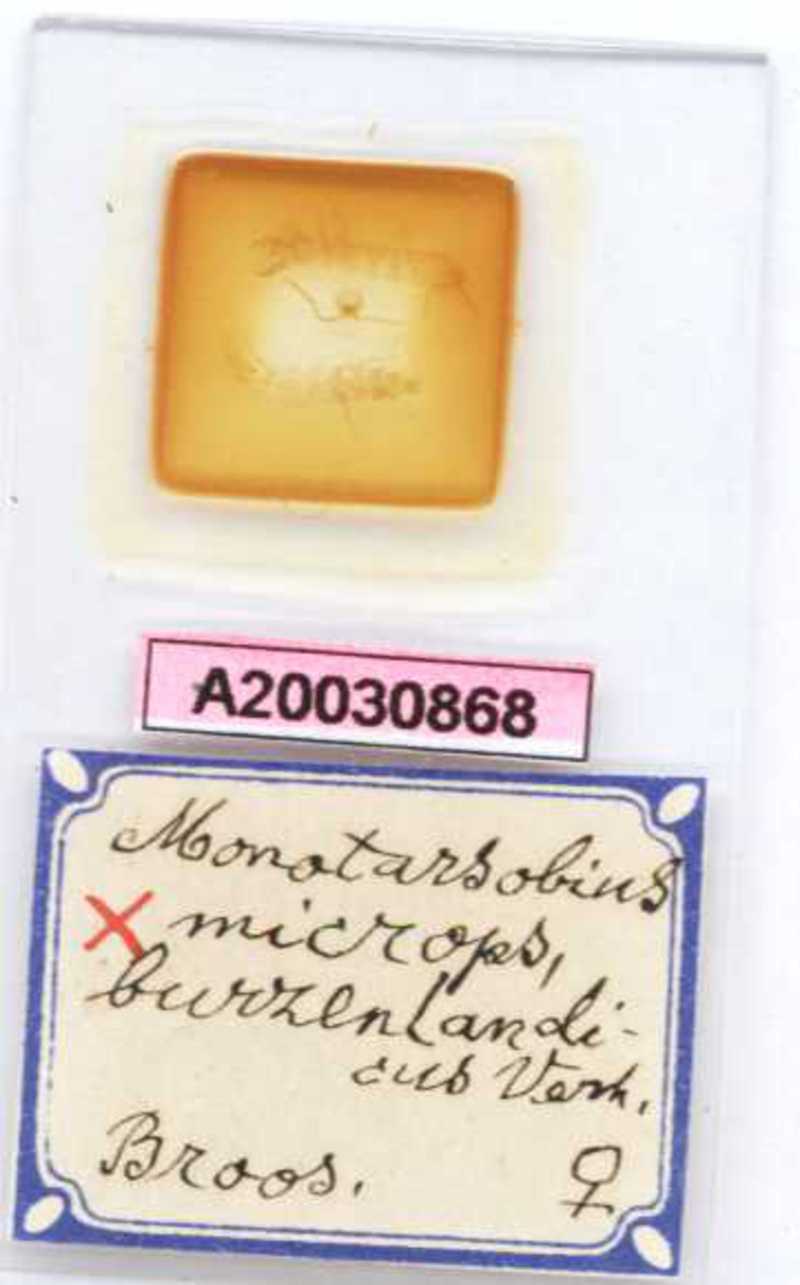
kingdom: Animalia
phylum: Arthropoda
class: Chilopoda
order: Lithobiomorpha
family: Lithobiidae
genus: Monotarsobius
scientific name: Monotarsobius microps
